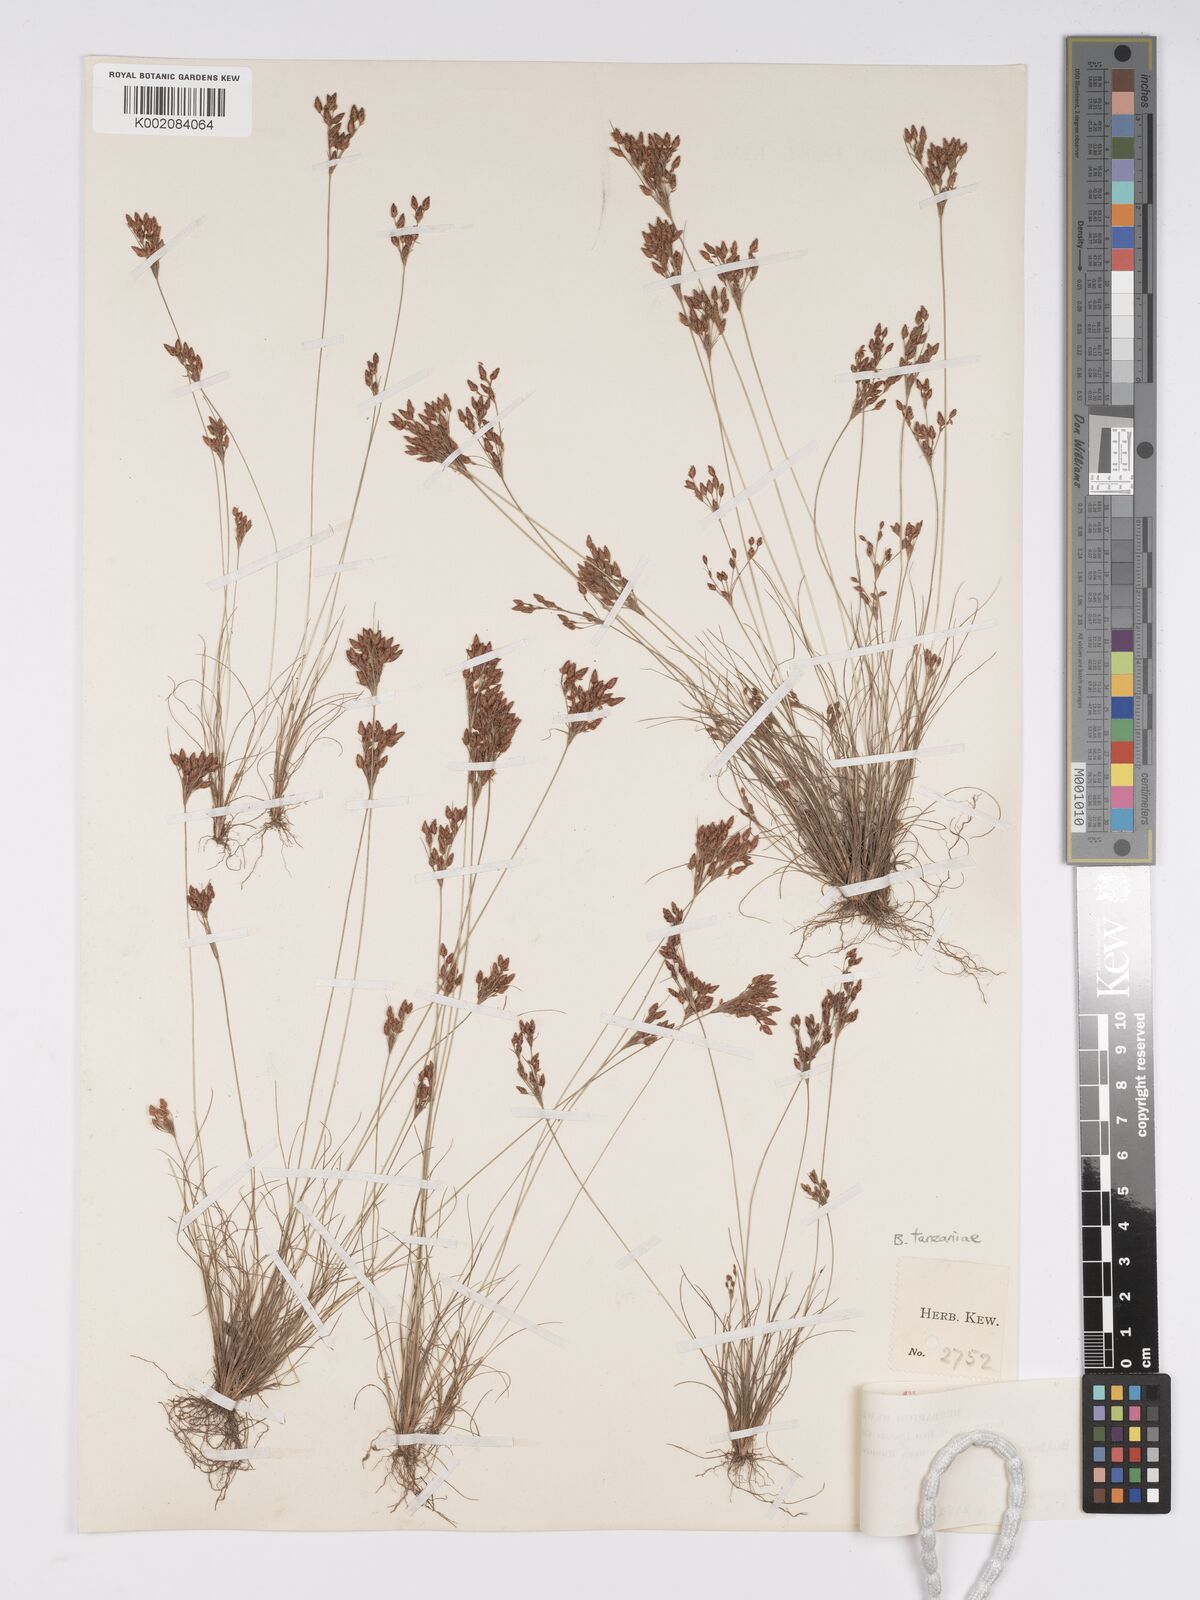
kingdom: Plantae
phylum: Tracheophyta
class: Liliopsida
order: Poales
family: Cyperaceae
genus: Bulbostylis
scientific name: Bulbostylis tanzaniae
